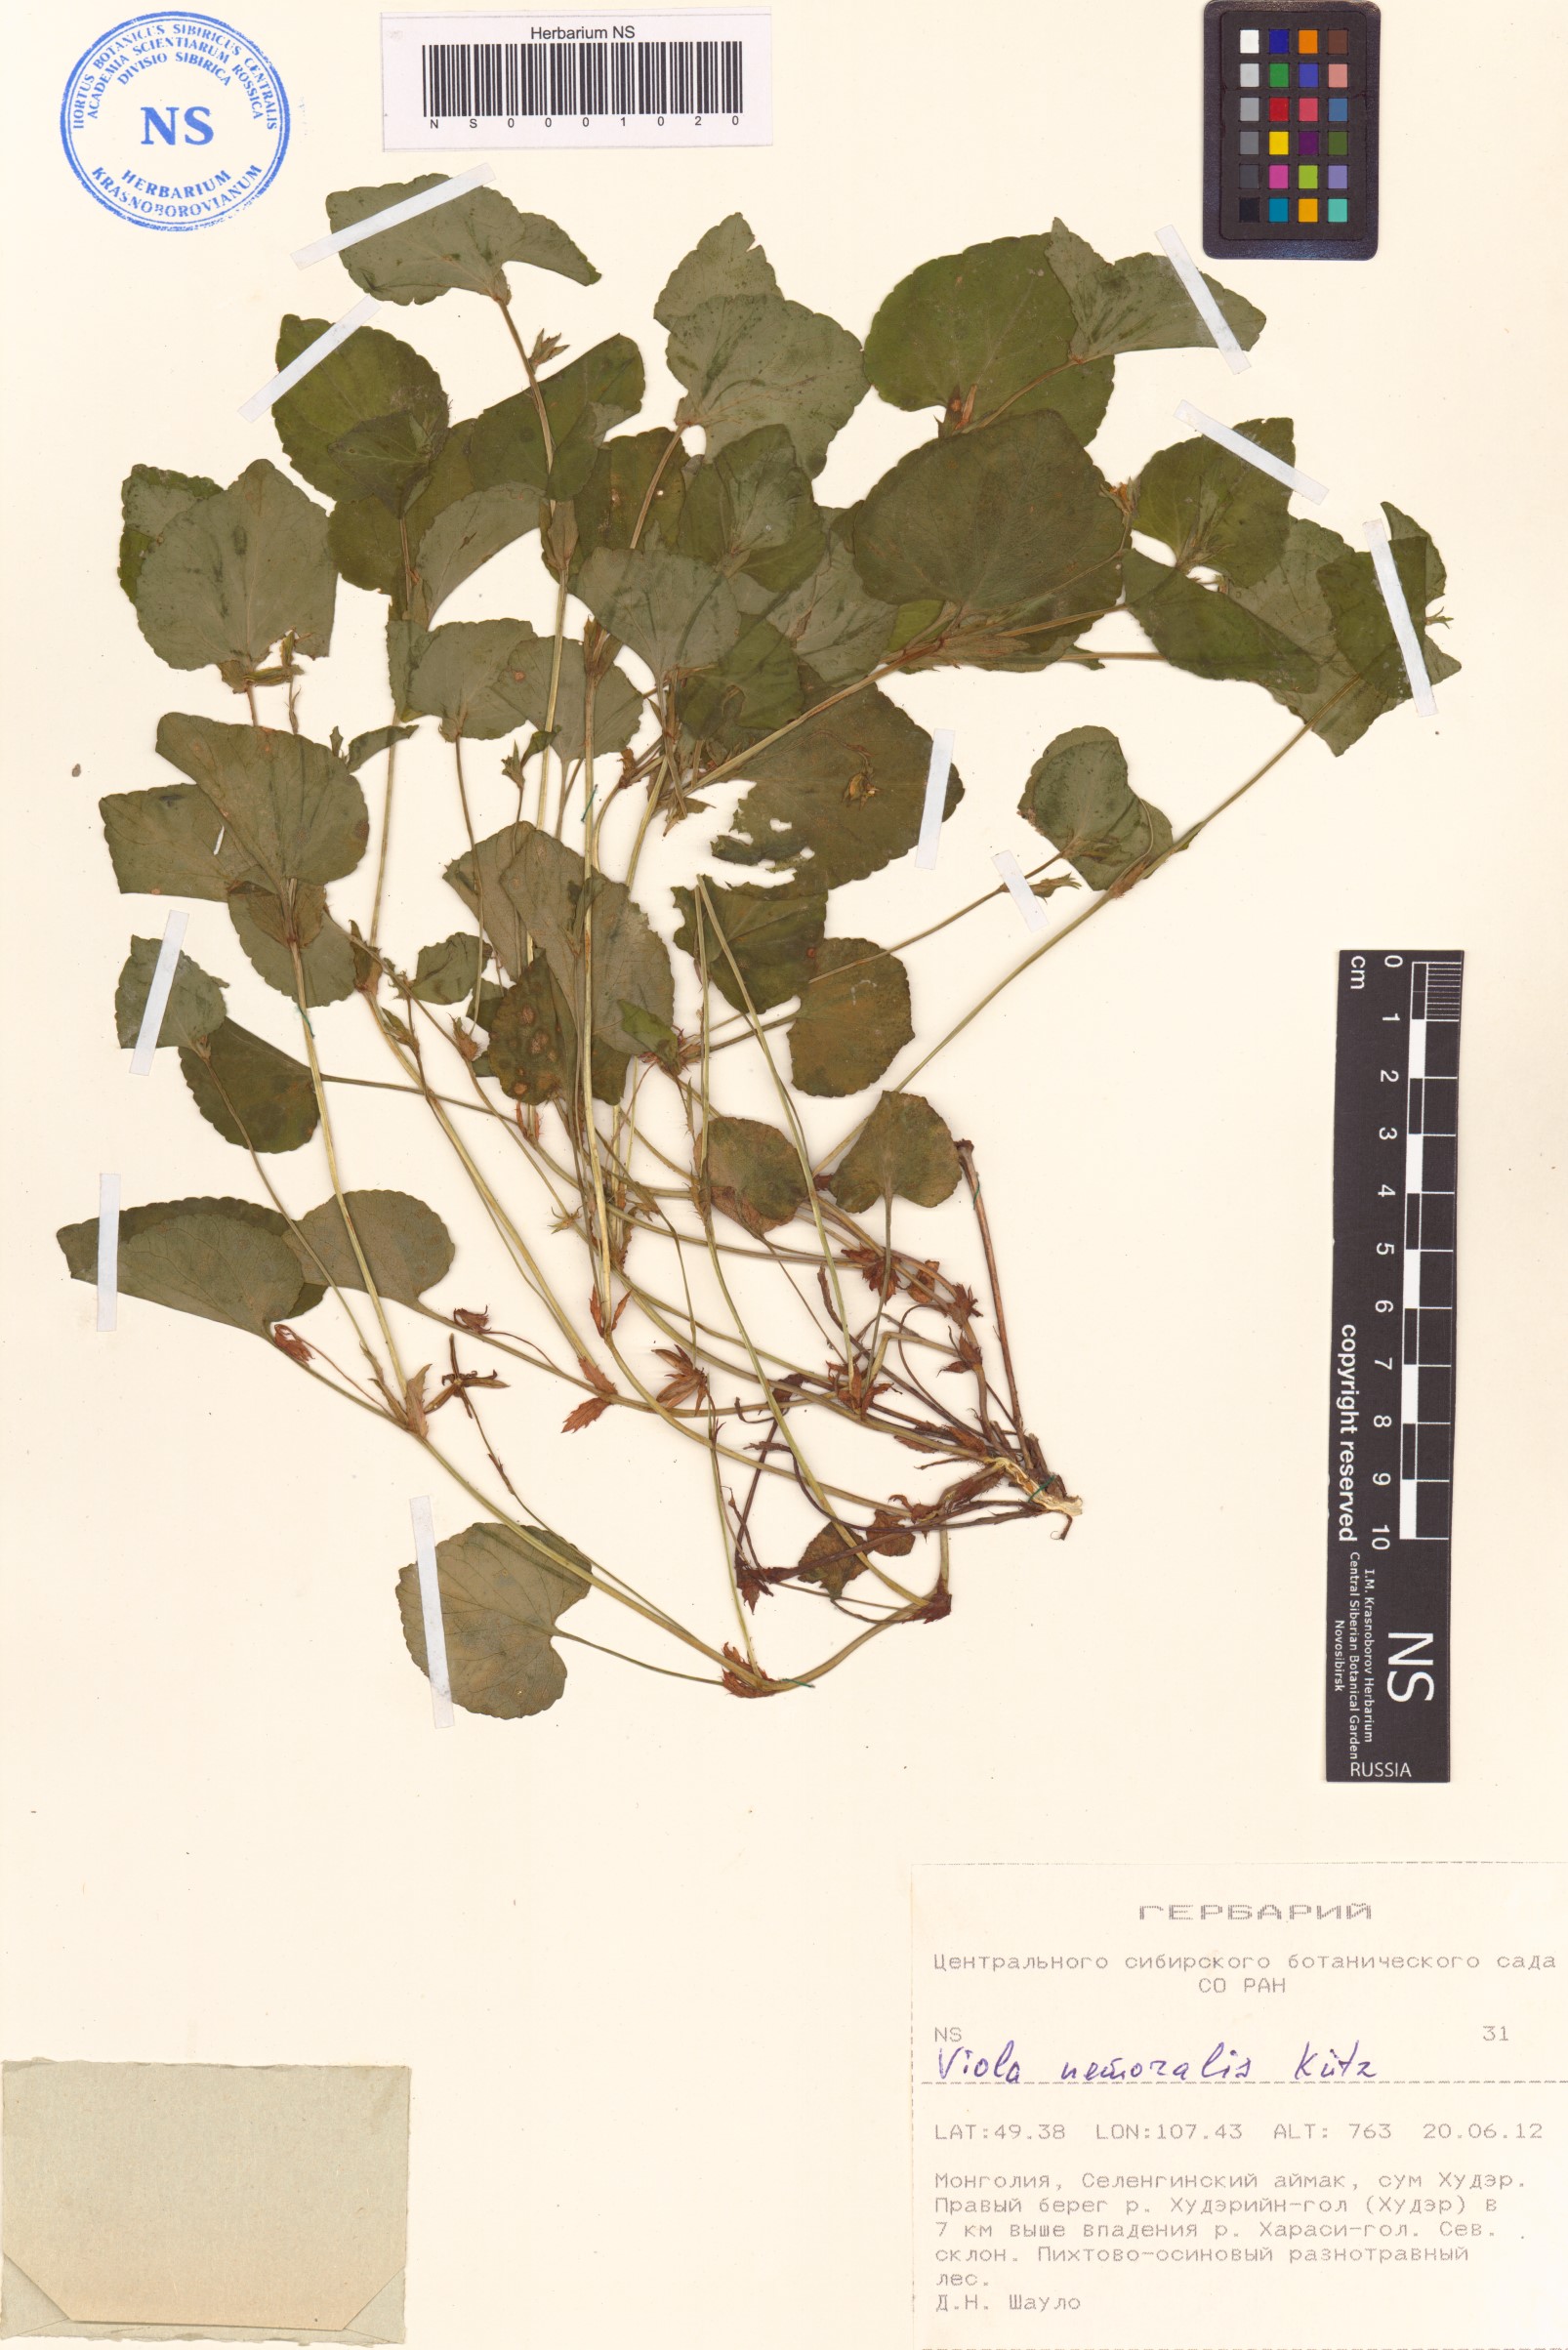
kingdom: Plantae
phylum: Tracheophyta
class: Magnoliopsida
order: Malpighiales
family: Violaceae
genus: Viola
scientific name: Viola ruppii
